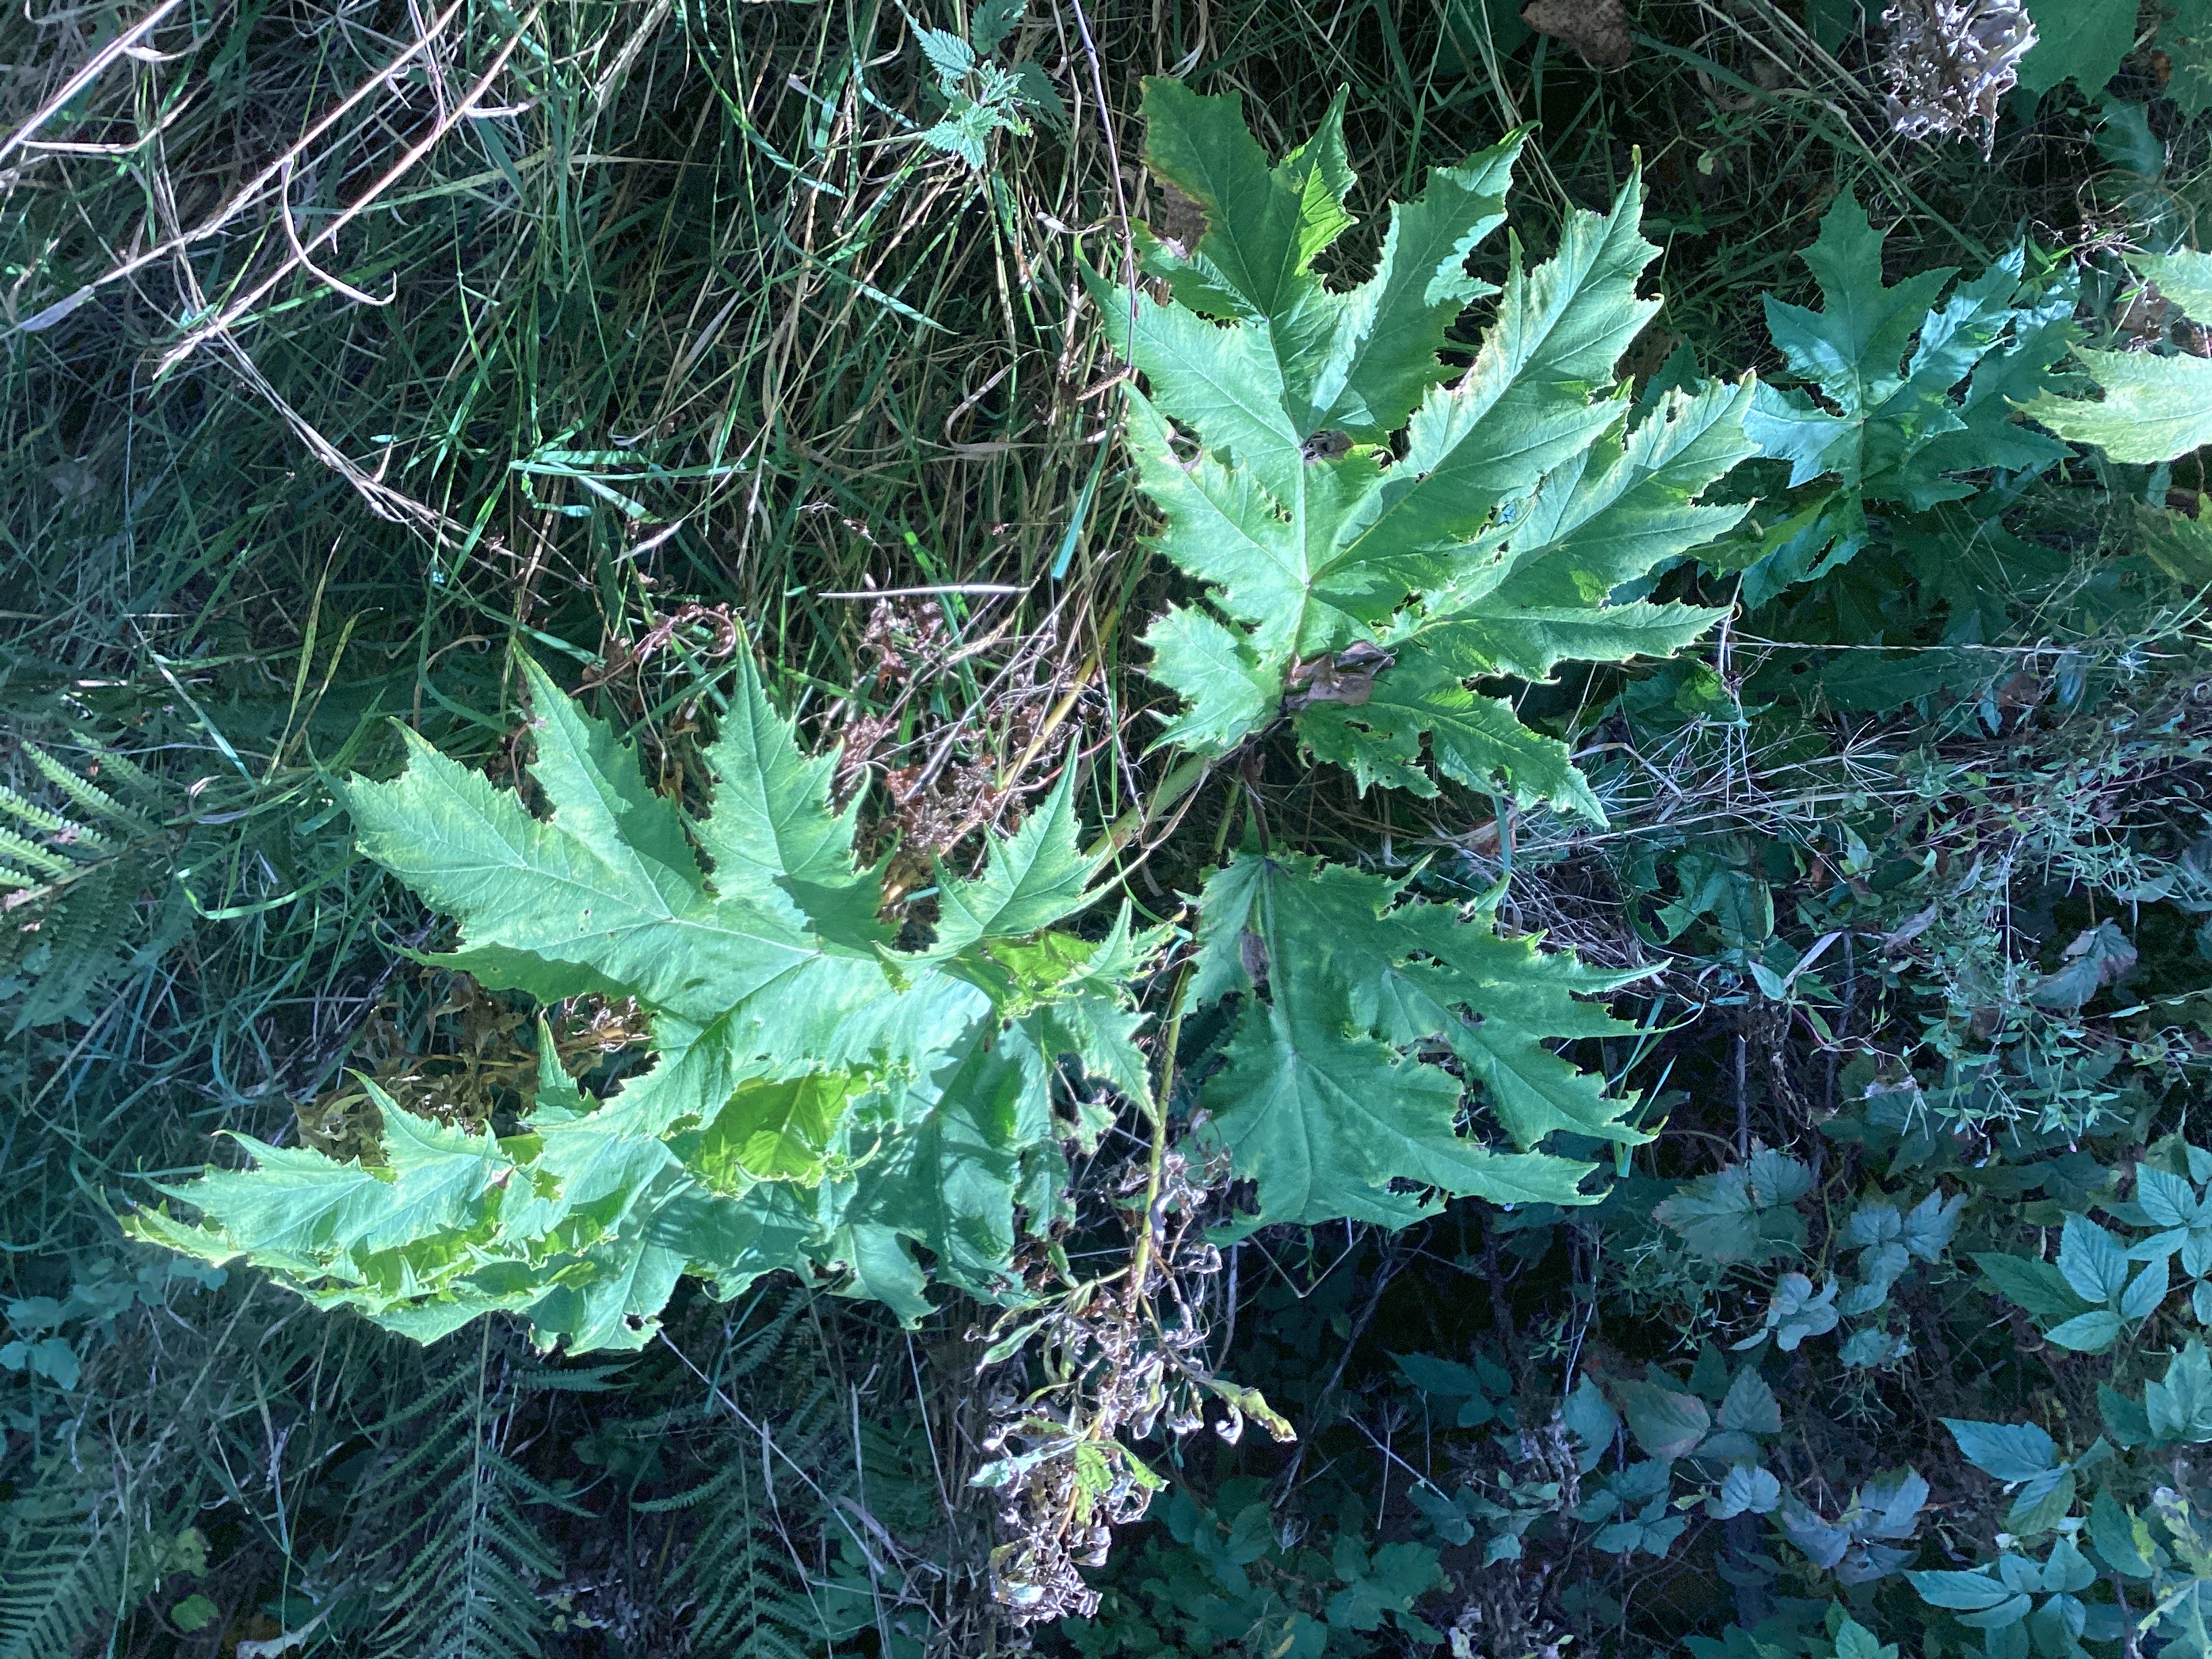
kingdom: Plantae
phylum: Tracheophyta
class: Magnoliopsida
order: Apiales
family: Apiaceae
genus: Heracleum
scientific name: Heracleum mantegazzianum
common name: kjempebjørnekjeks
